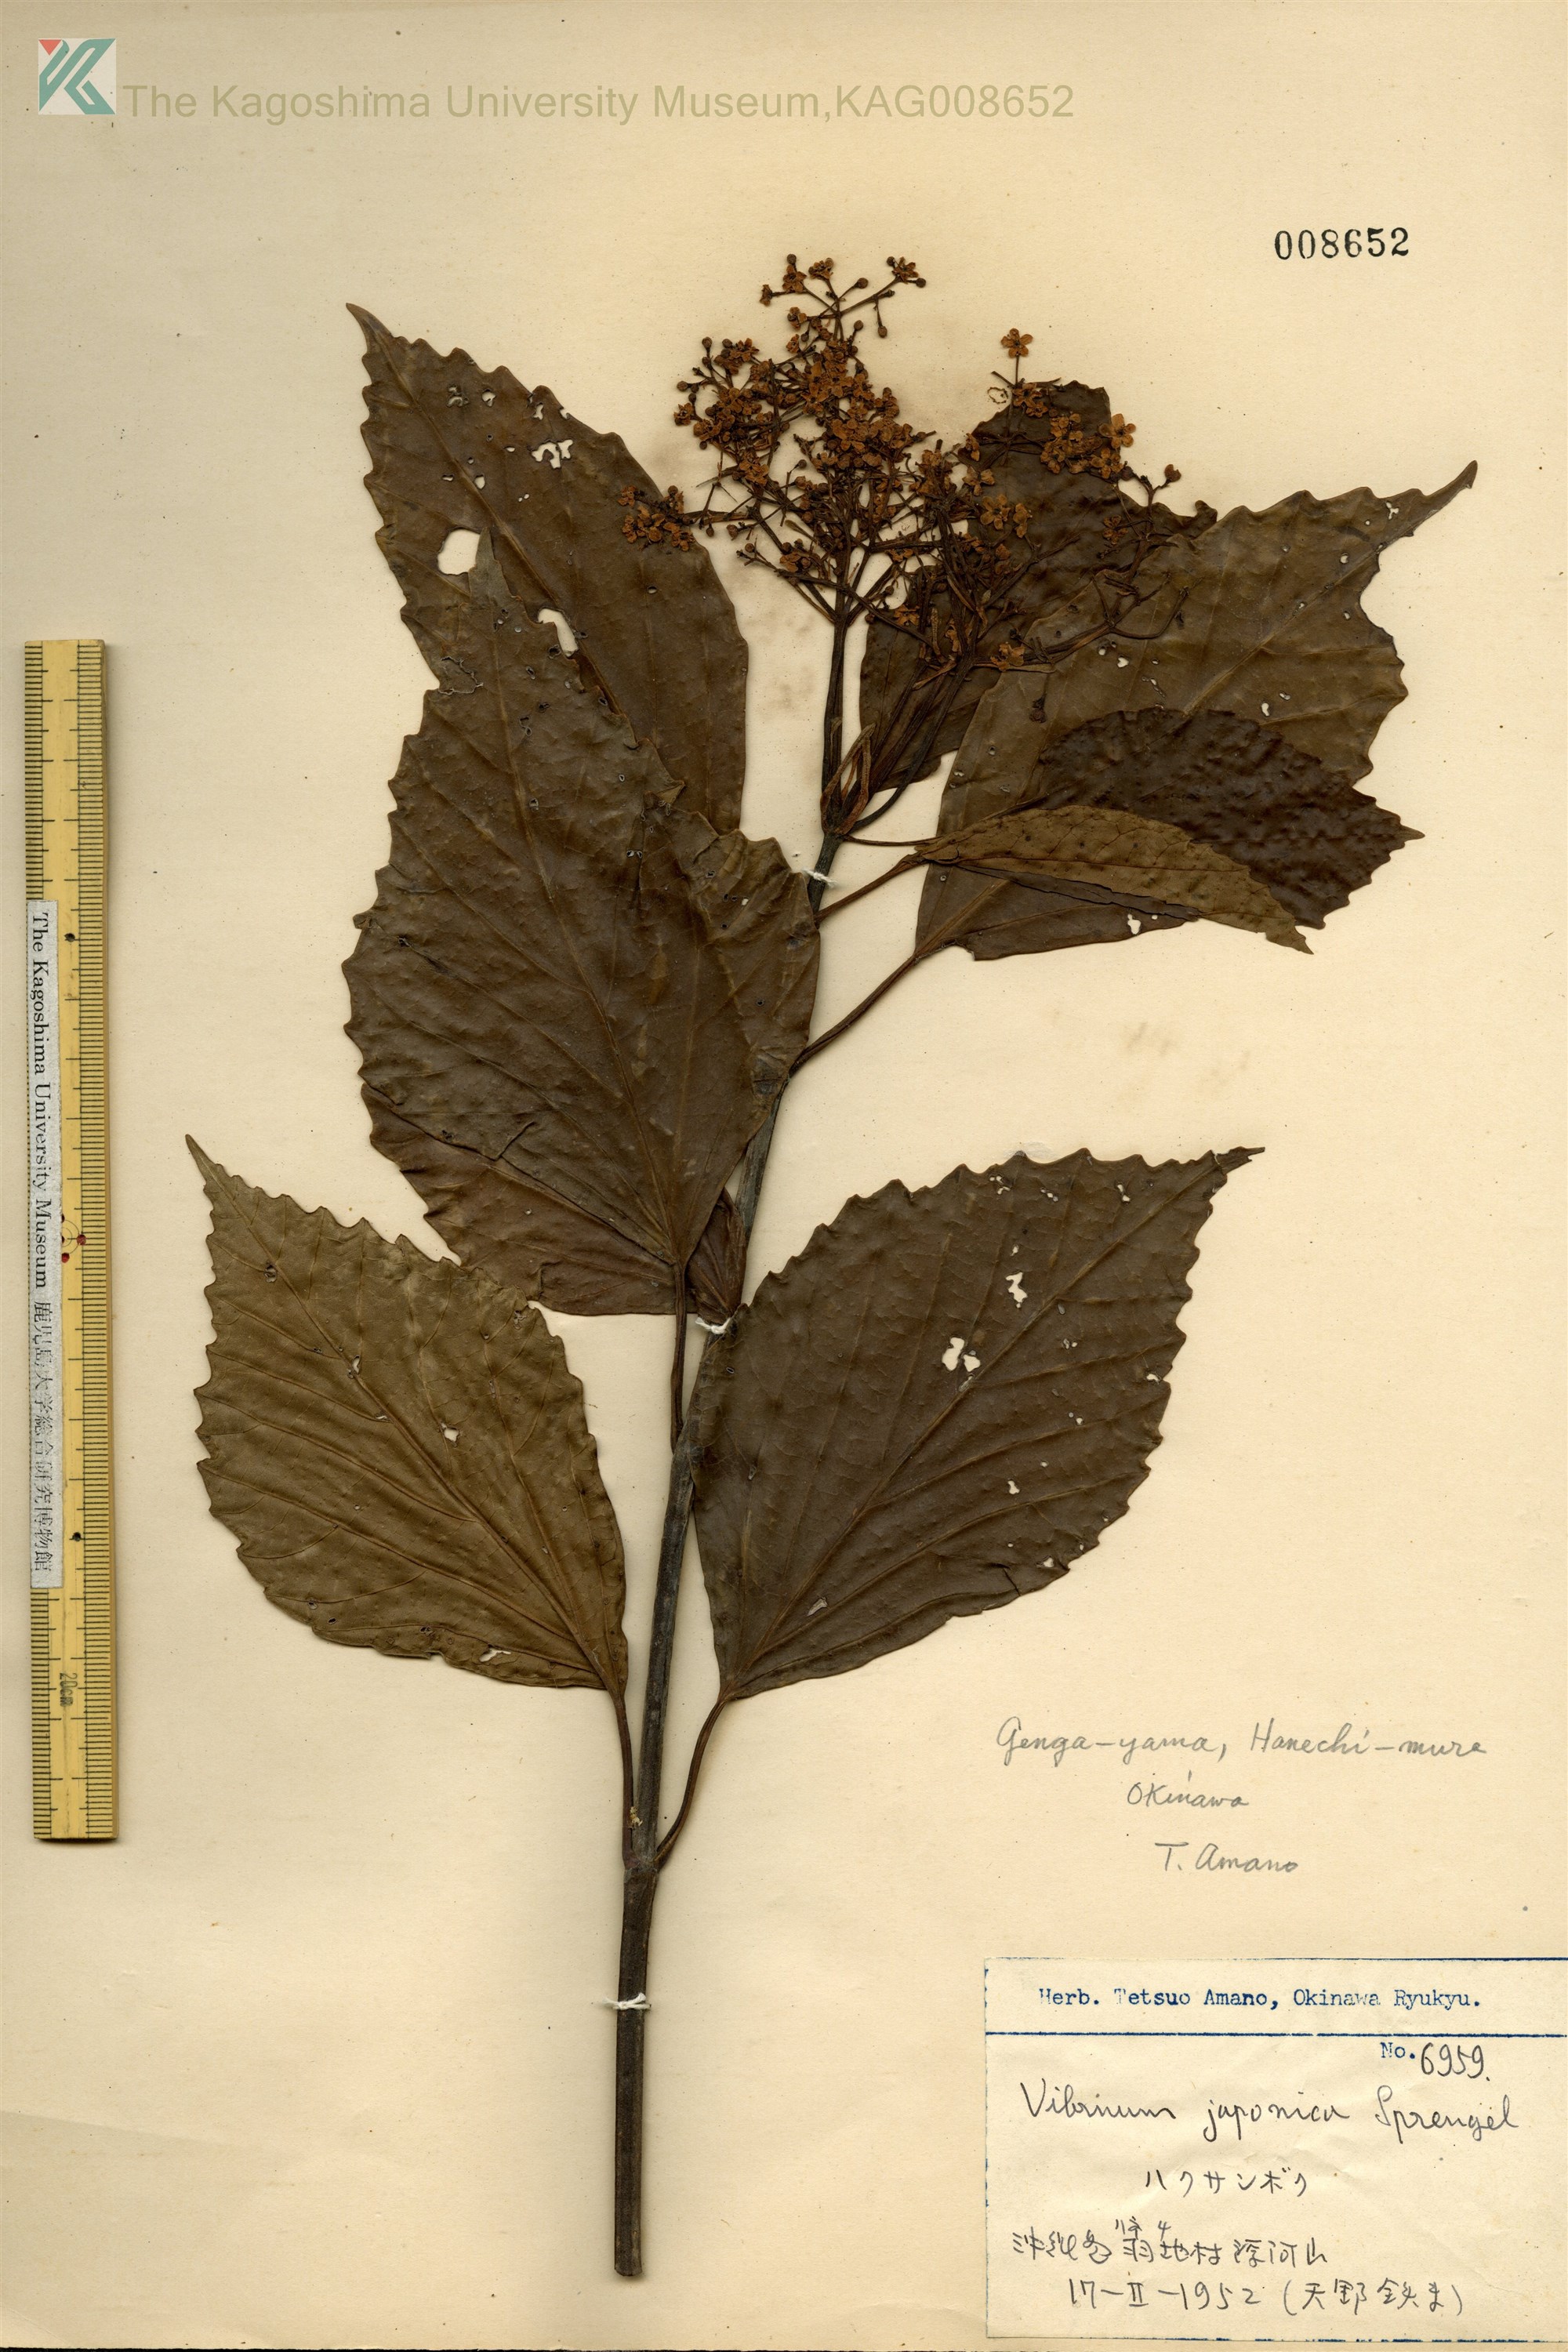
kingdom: Plantae
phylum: Tracheophyta
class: Magnoliopsida
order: Dipsacales
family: Viburnaceae
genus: Viburnum
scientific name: Viburnum japonicum
